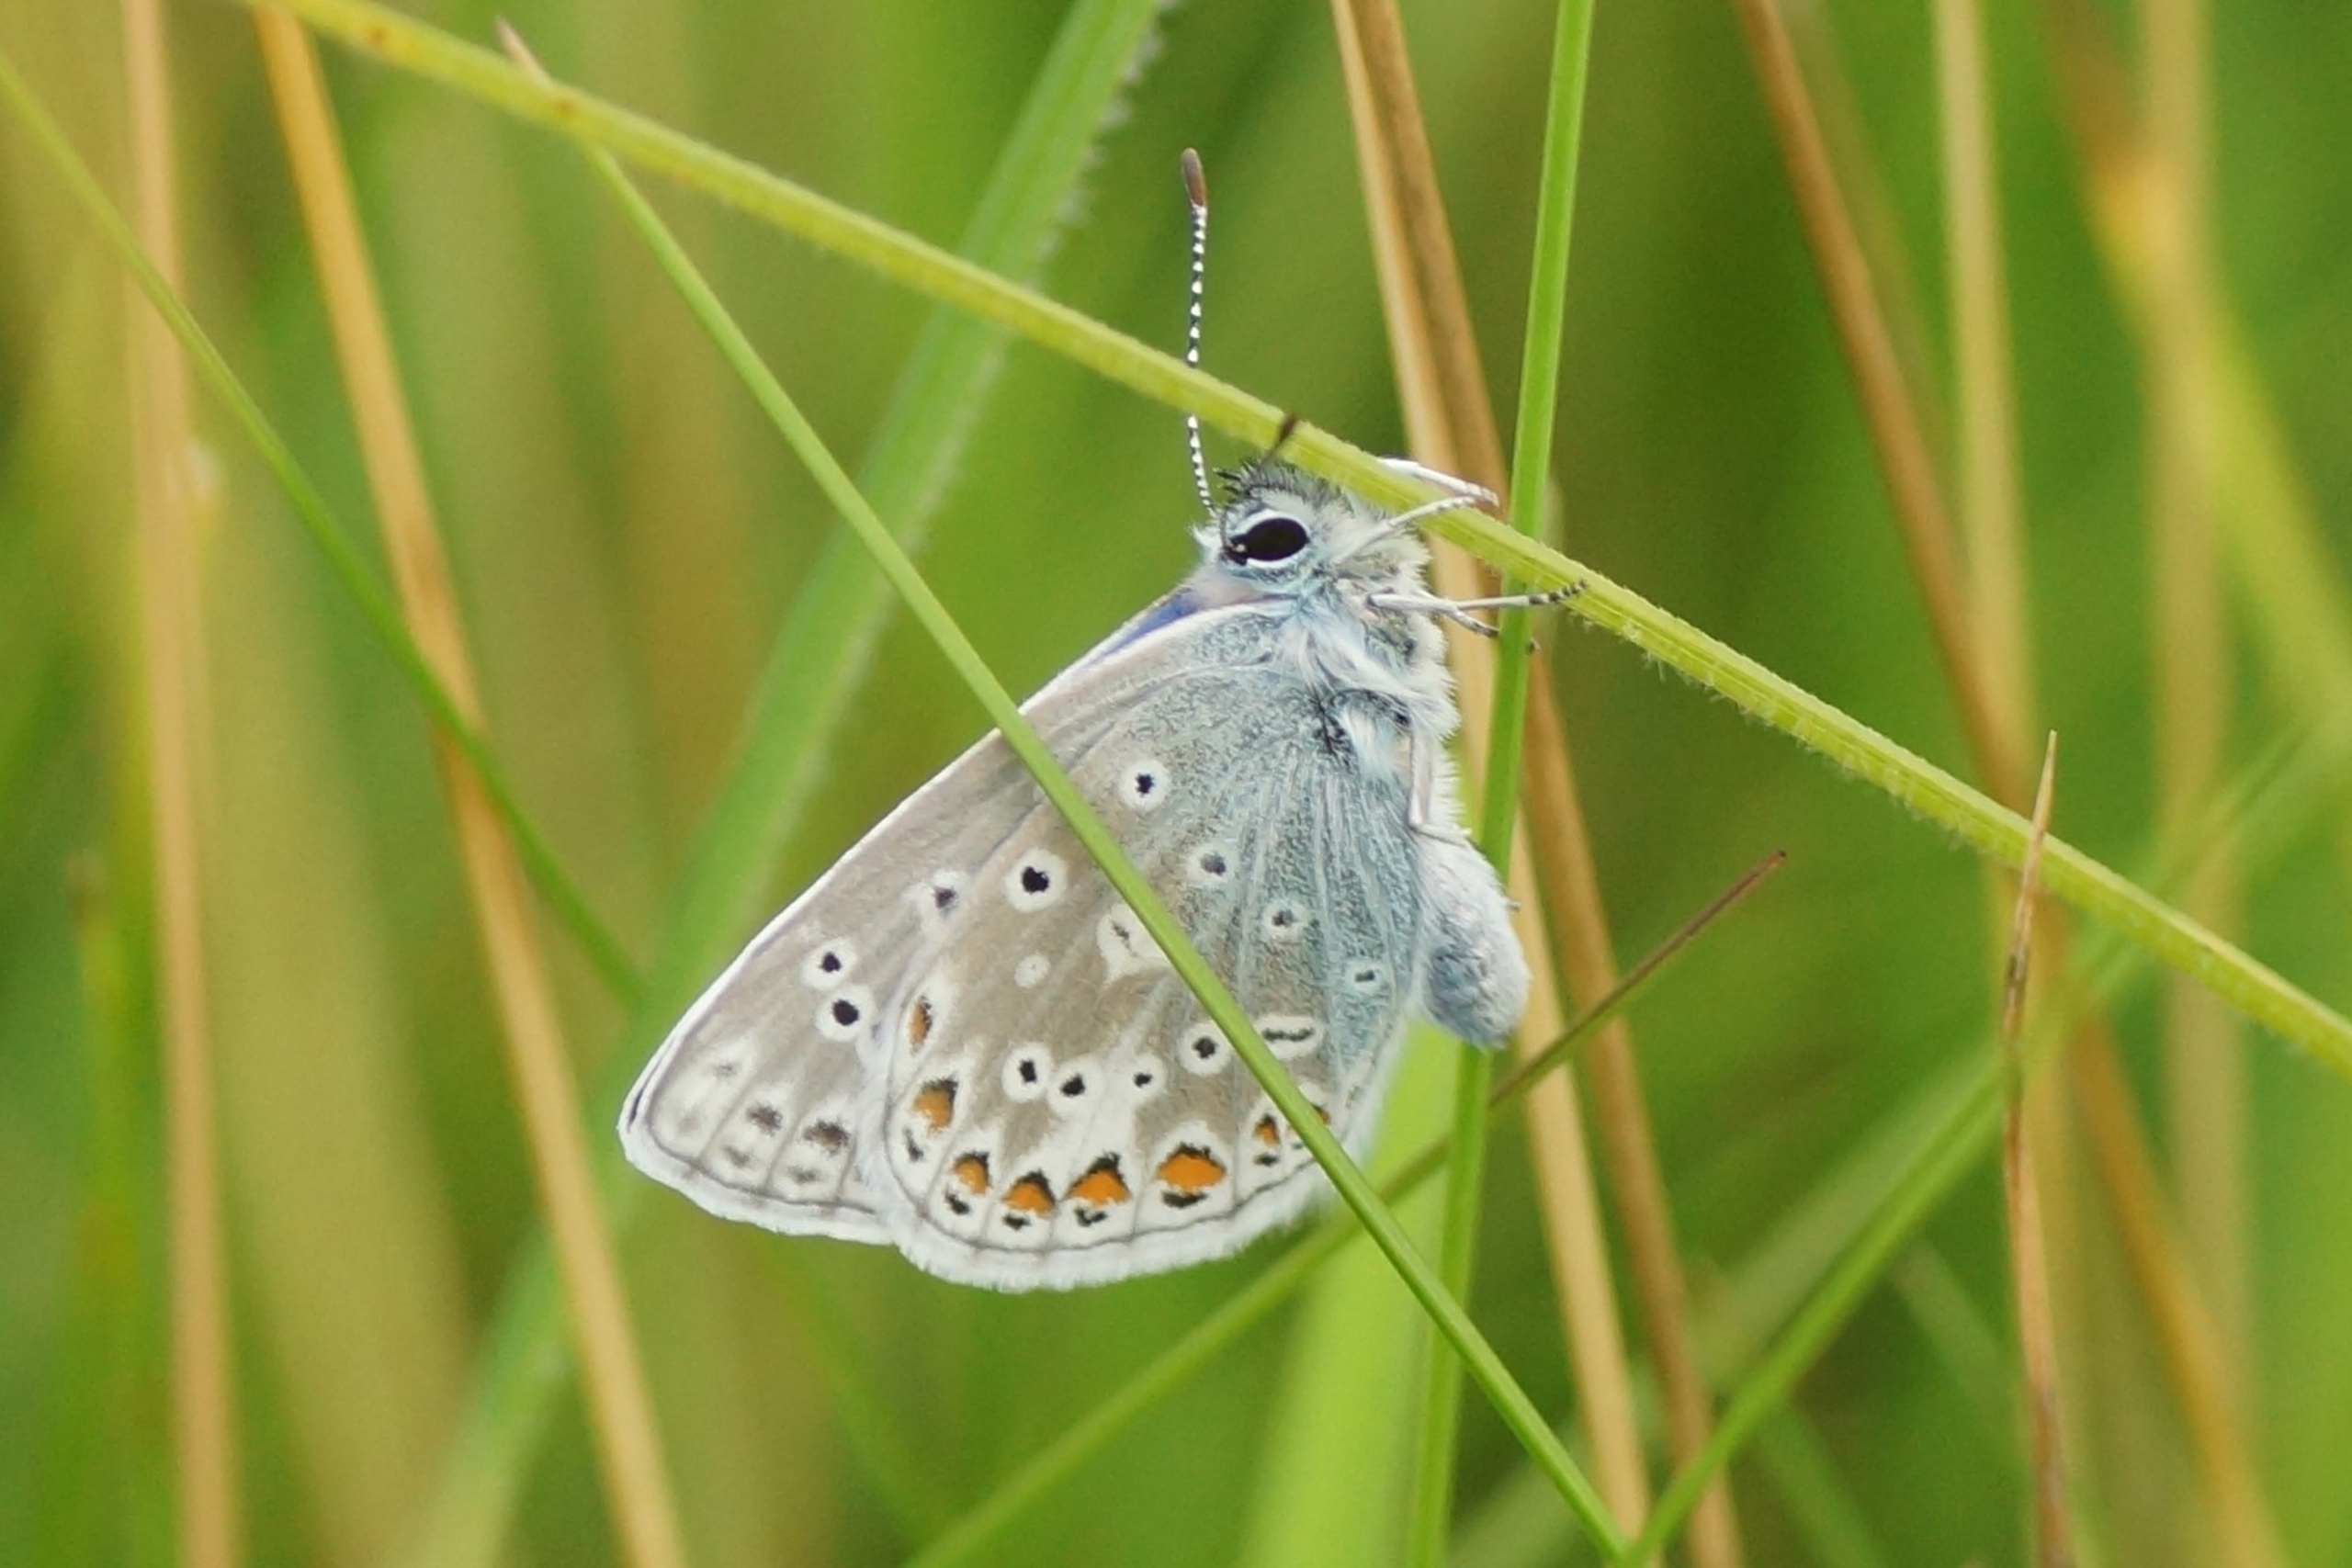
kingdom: Animalia
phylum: Arthropoda
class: Insecta
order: Lepidoptera
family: Lycaenidae
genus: Polyommatus
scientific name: Polyommatus icarus
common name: Almindelig blåfugl
